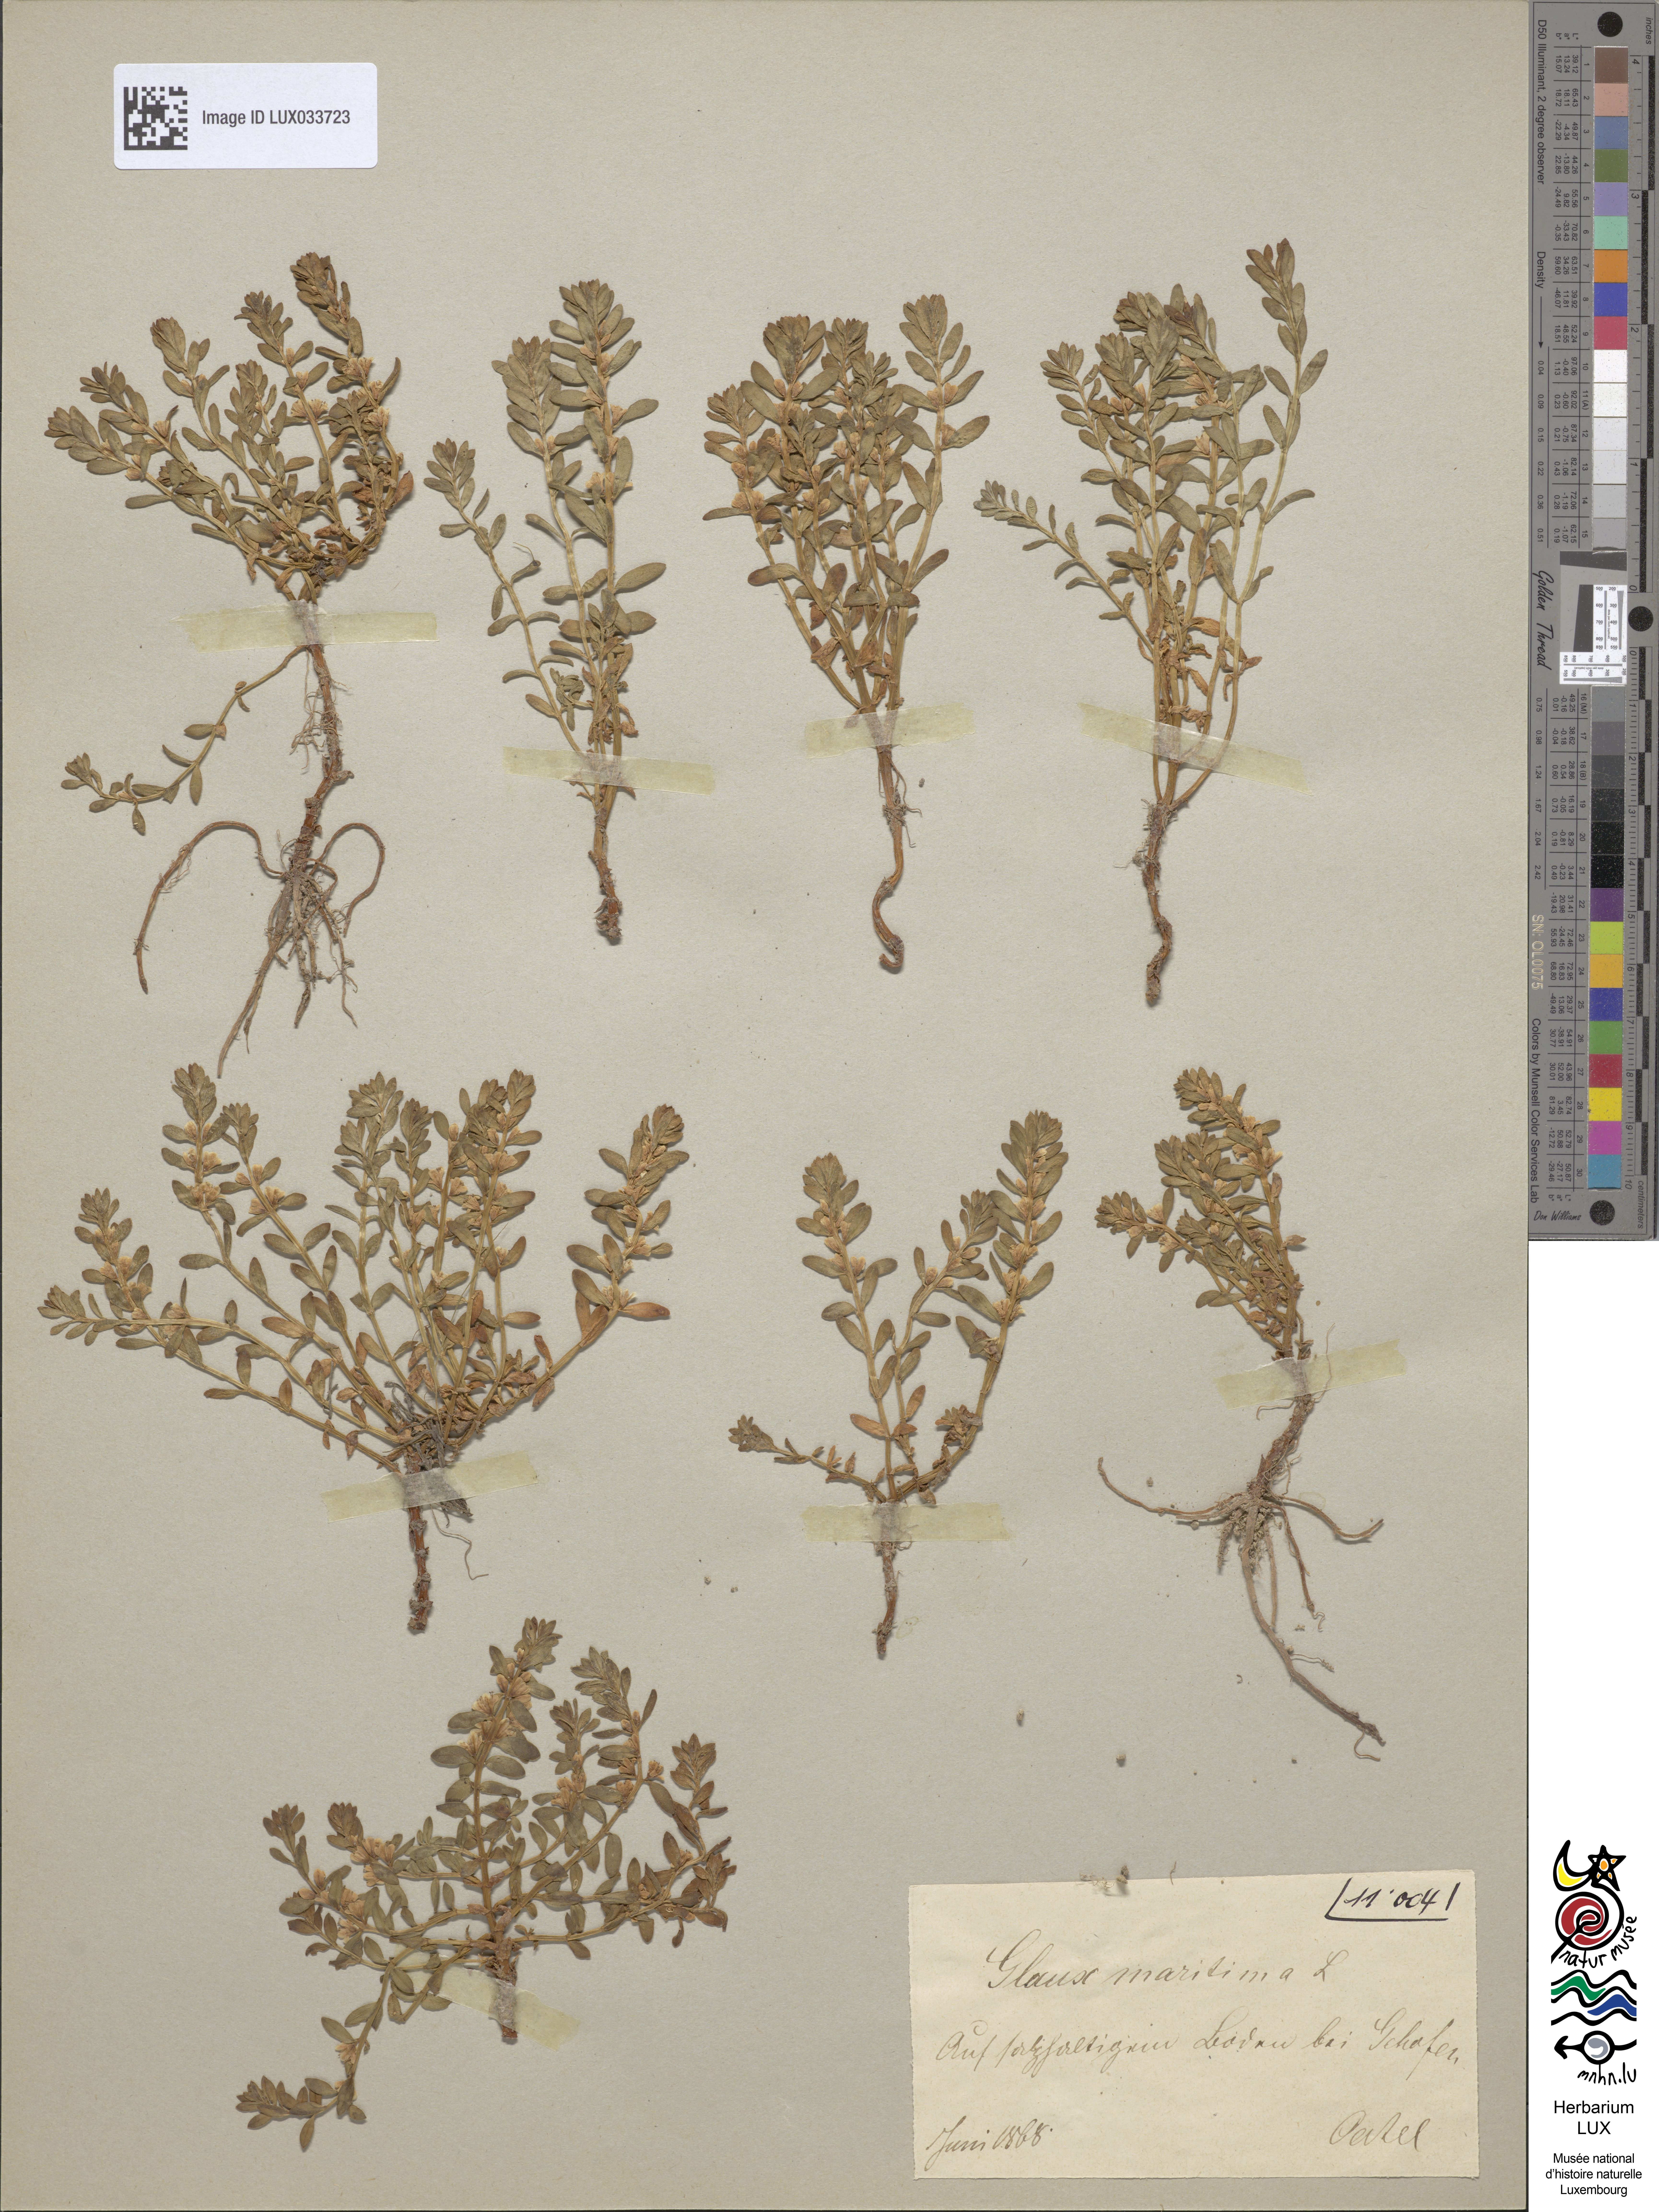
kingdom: Plantae
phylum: Tracheophyta
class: Magnoliopsida
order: Ericales
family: Primulaceae
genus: Lysimachia
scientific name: Lysimachia maritima
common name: Sea milkwort
